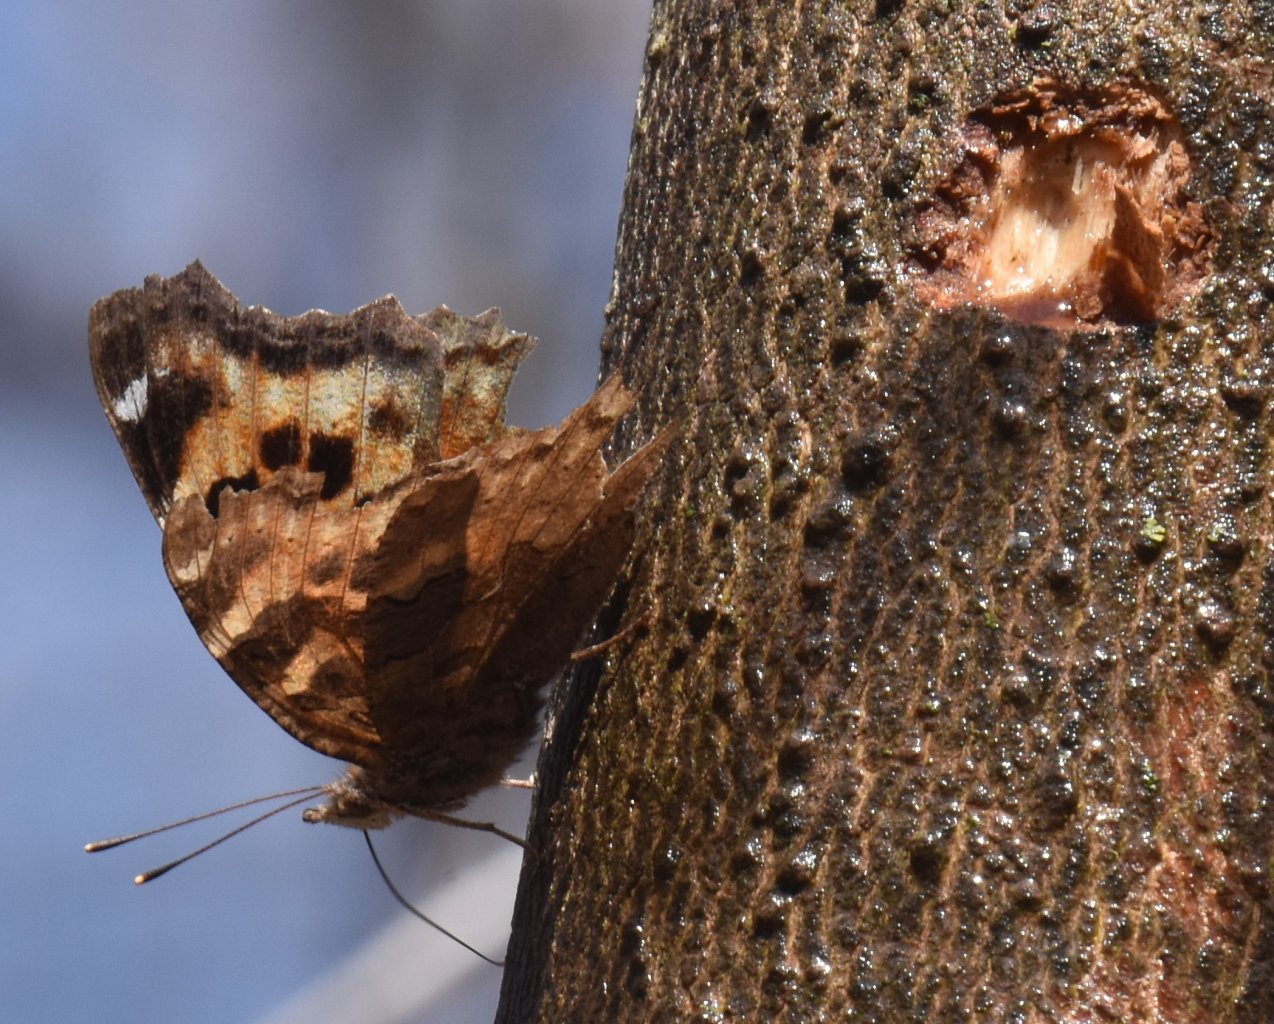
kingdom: Animalia
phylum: Arthropoda
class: Insecta
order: Lepidoptera
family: Nymphalidae
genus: Polygonia
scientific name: Polygonia vaualbum
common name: Compton Tortoiseshell
